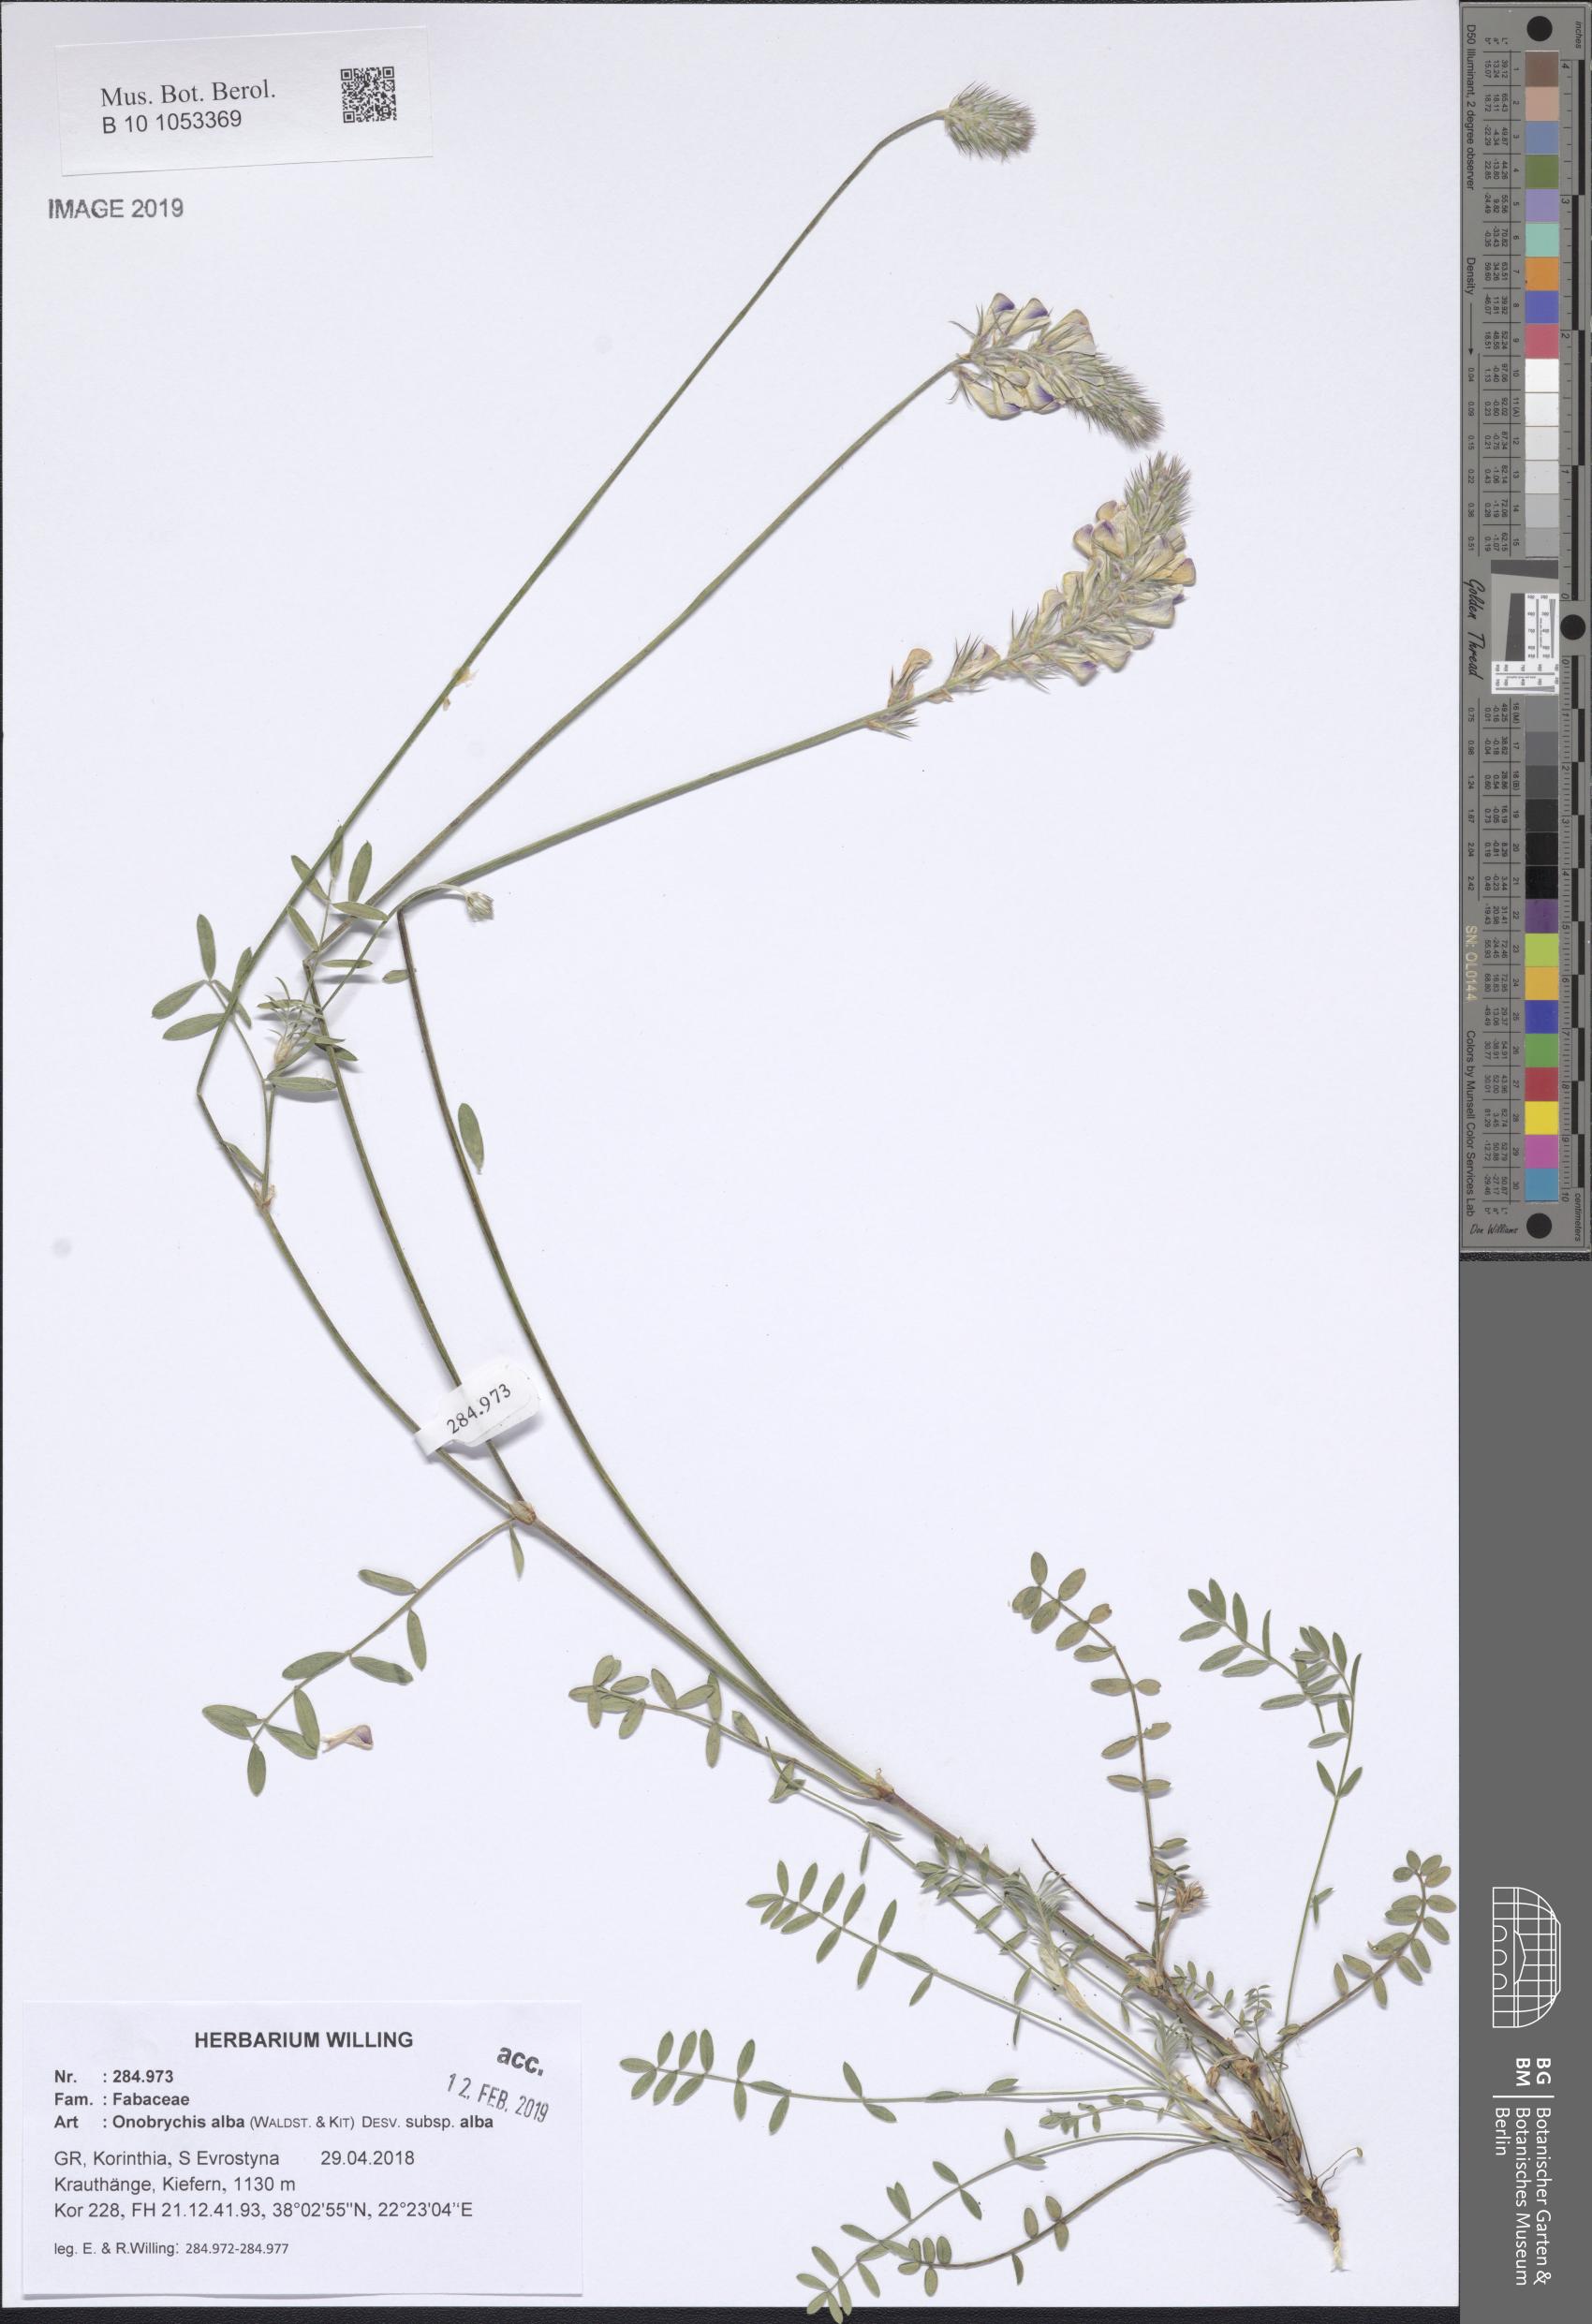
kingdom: Plantae
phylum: Tracheophyta
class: Magnoliopsida
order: Fabales
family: Fabaceae
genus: Onobrychis
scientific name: Onobrychis alba
